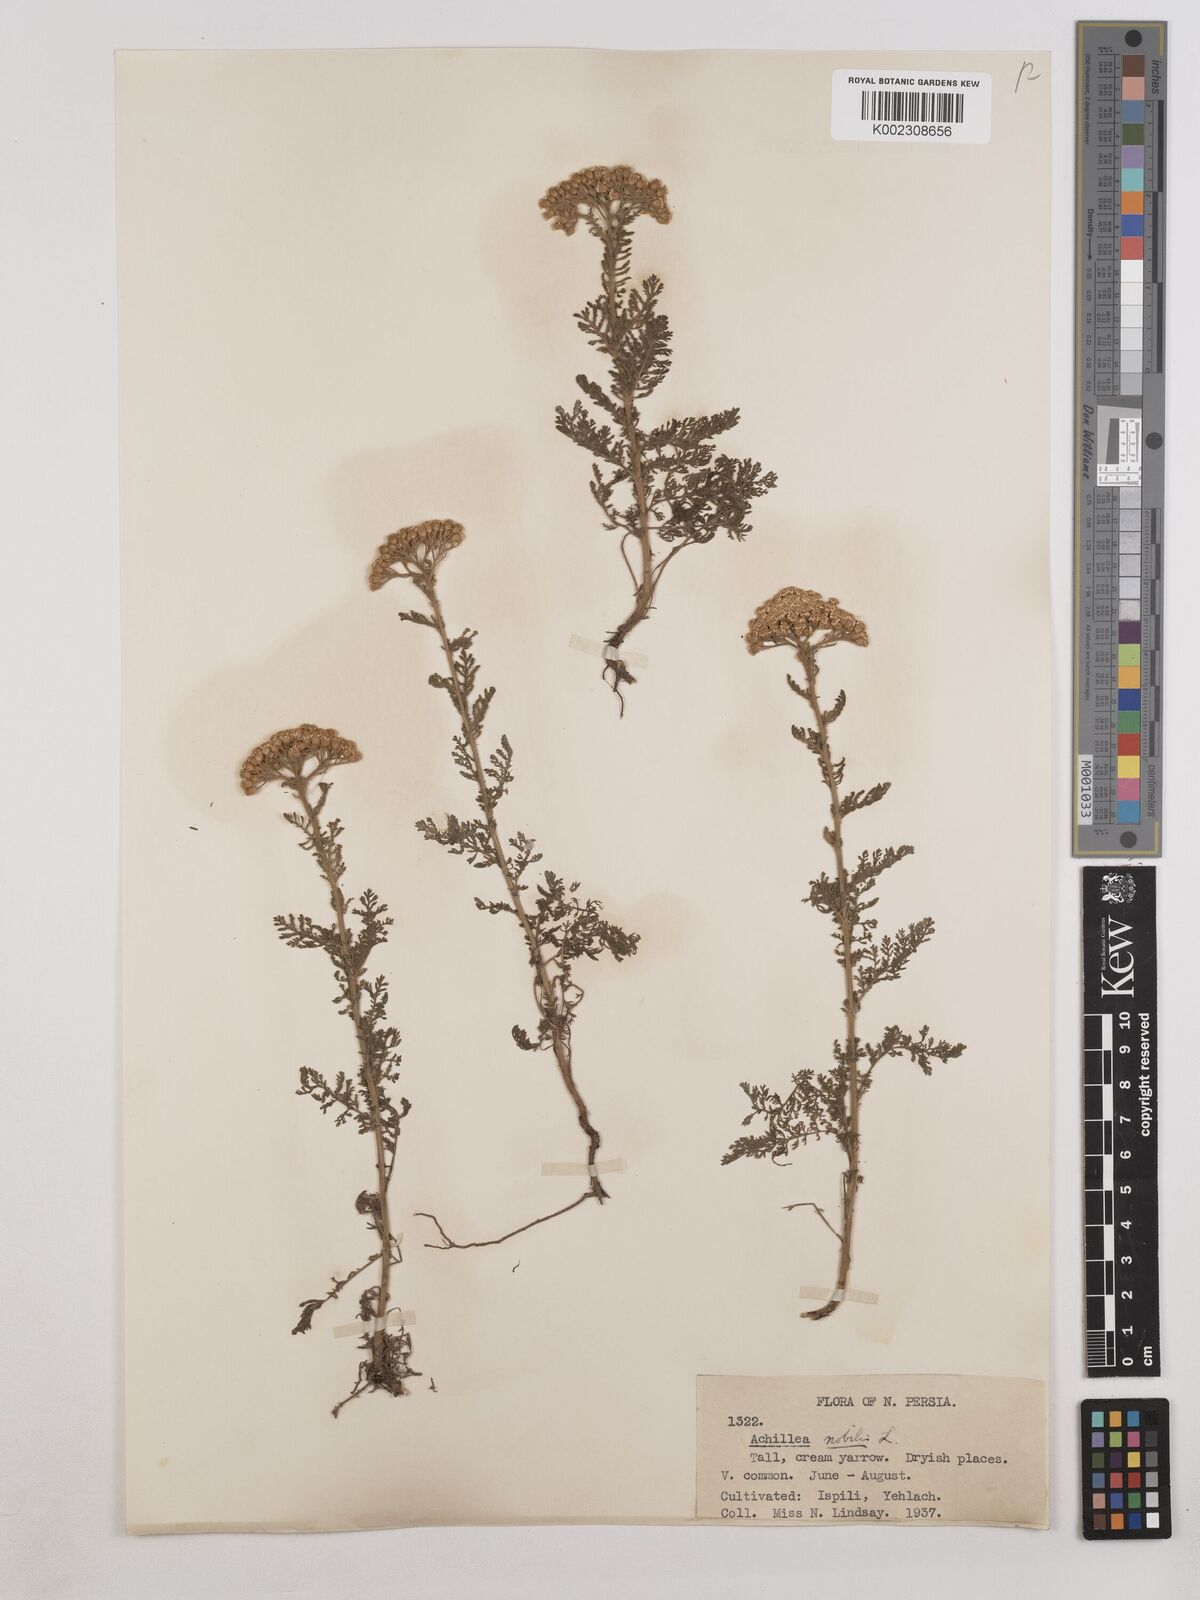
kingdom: Plantae
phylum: Tracheophyta
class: Magnoliopsida
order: Asterales
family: Asteraceae
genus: Achillea
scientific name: Achillea nobilis
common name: Noble yarrow
